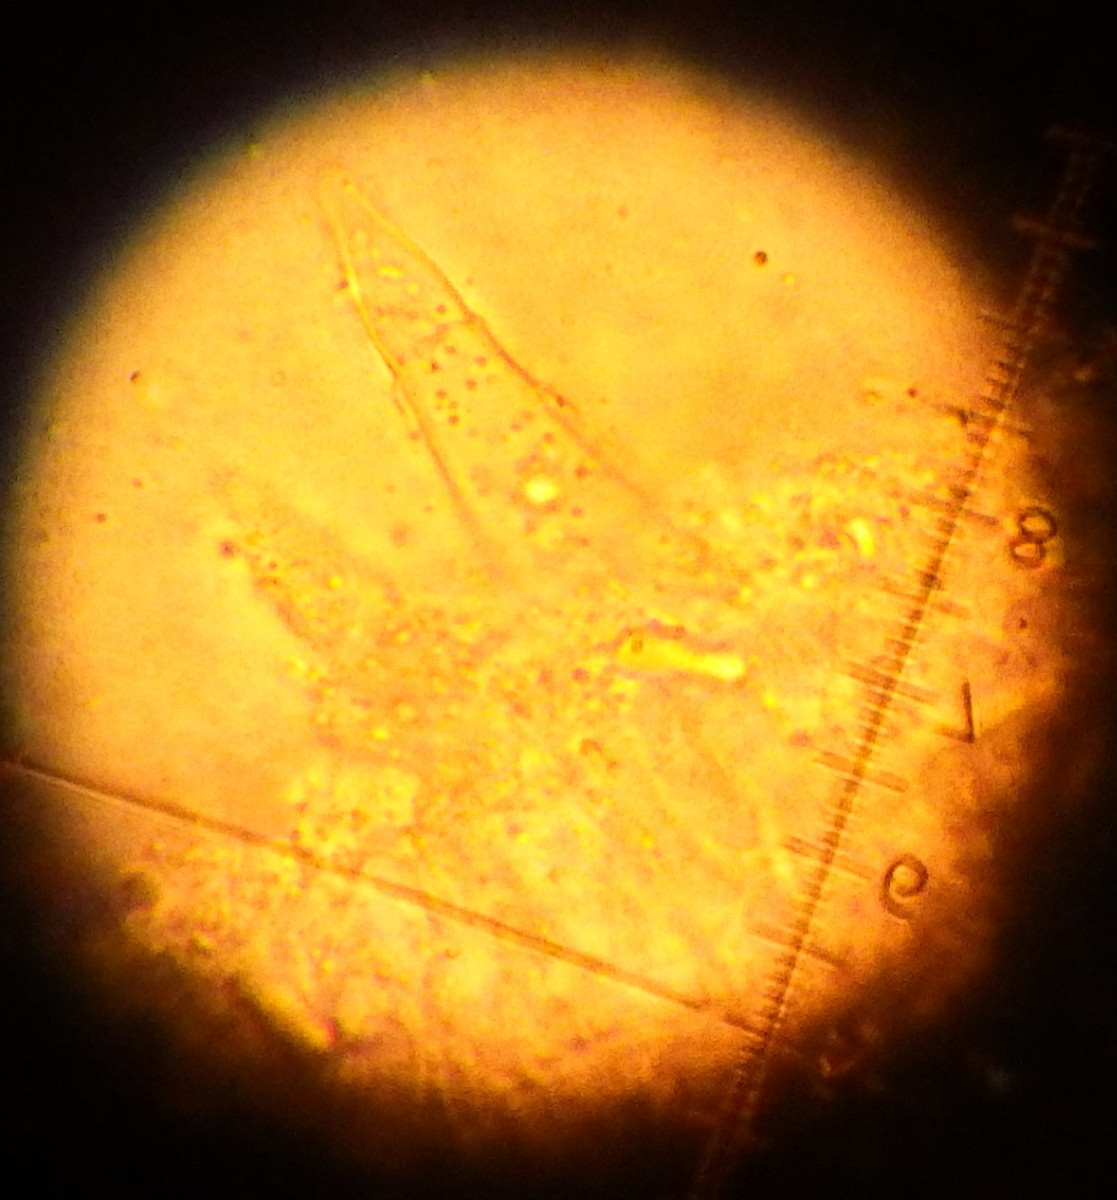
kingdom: Fungi
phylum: Basidiomycota
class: Agaricomycetes
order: Agaricales
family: Physalacriaceae
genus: Strobilurus
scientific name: Strobilurus tenacellus
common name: sommer-koglehat
